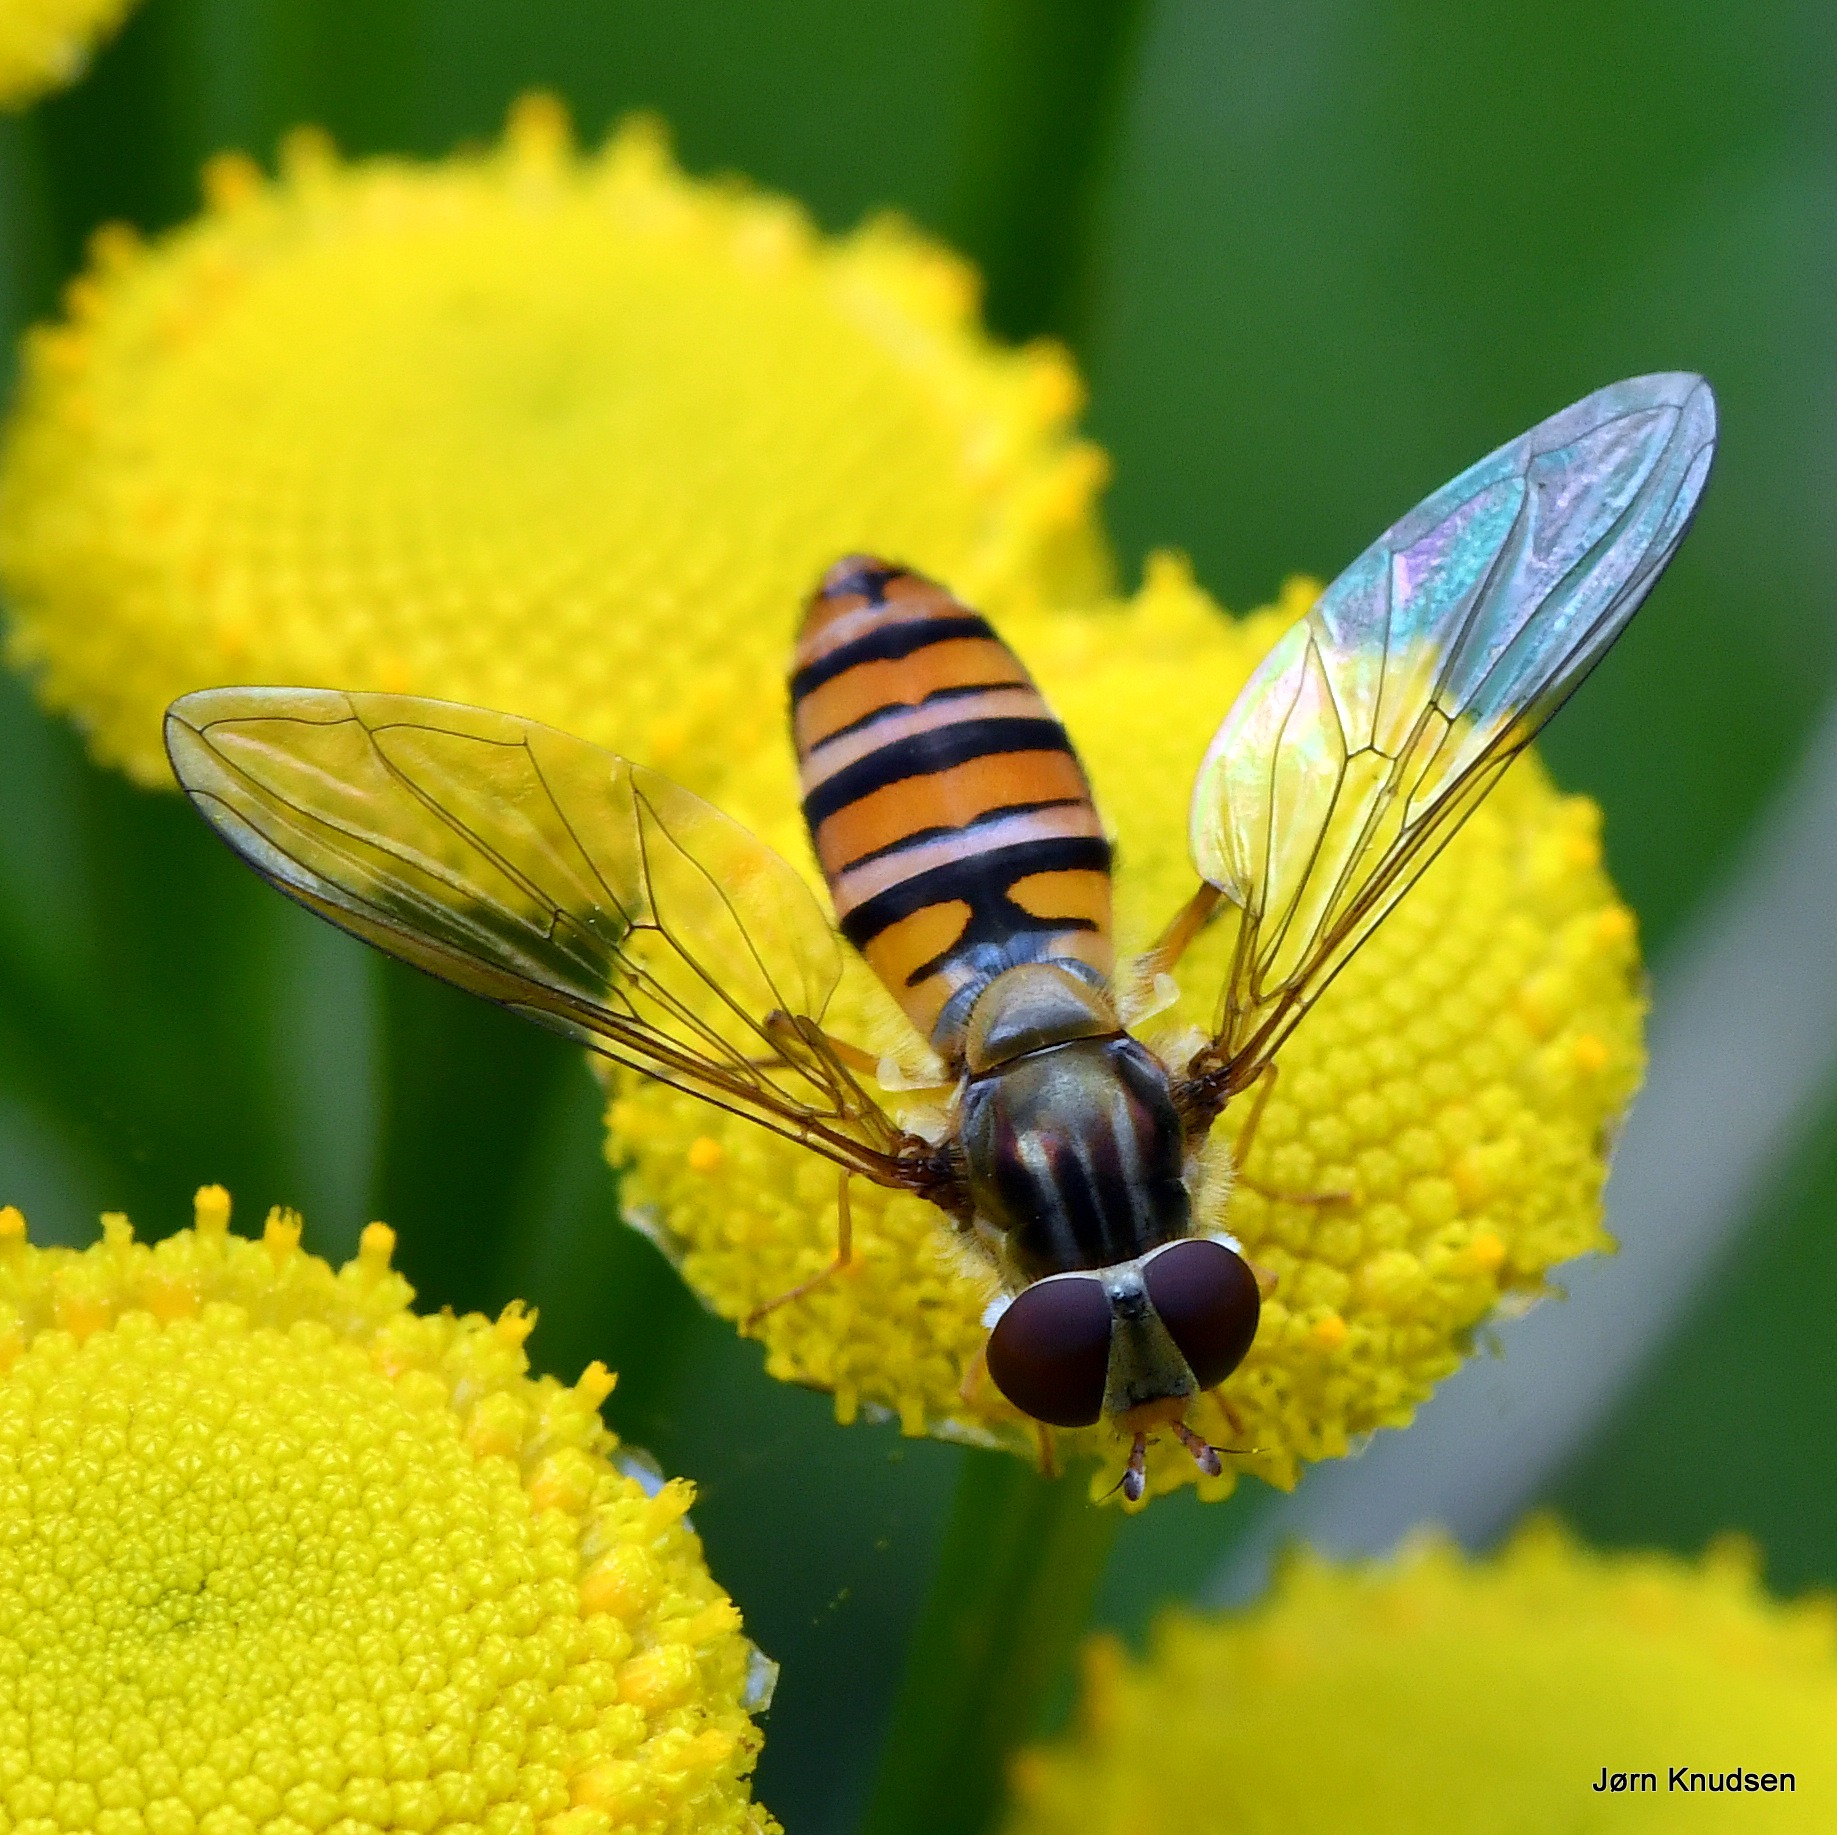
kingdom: Animalia
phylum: Arthropoda
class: Insecta
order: Diptera
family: Syrphidae
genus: Episyrphus
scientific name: Episyrphus balteatus
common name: Dobbeltbåndet svirreflue
